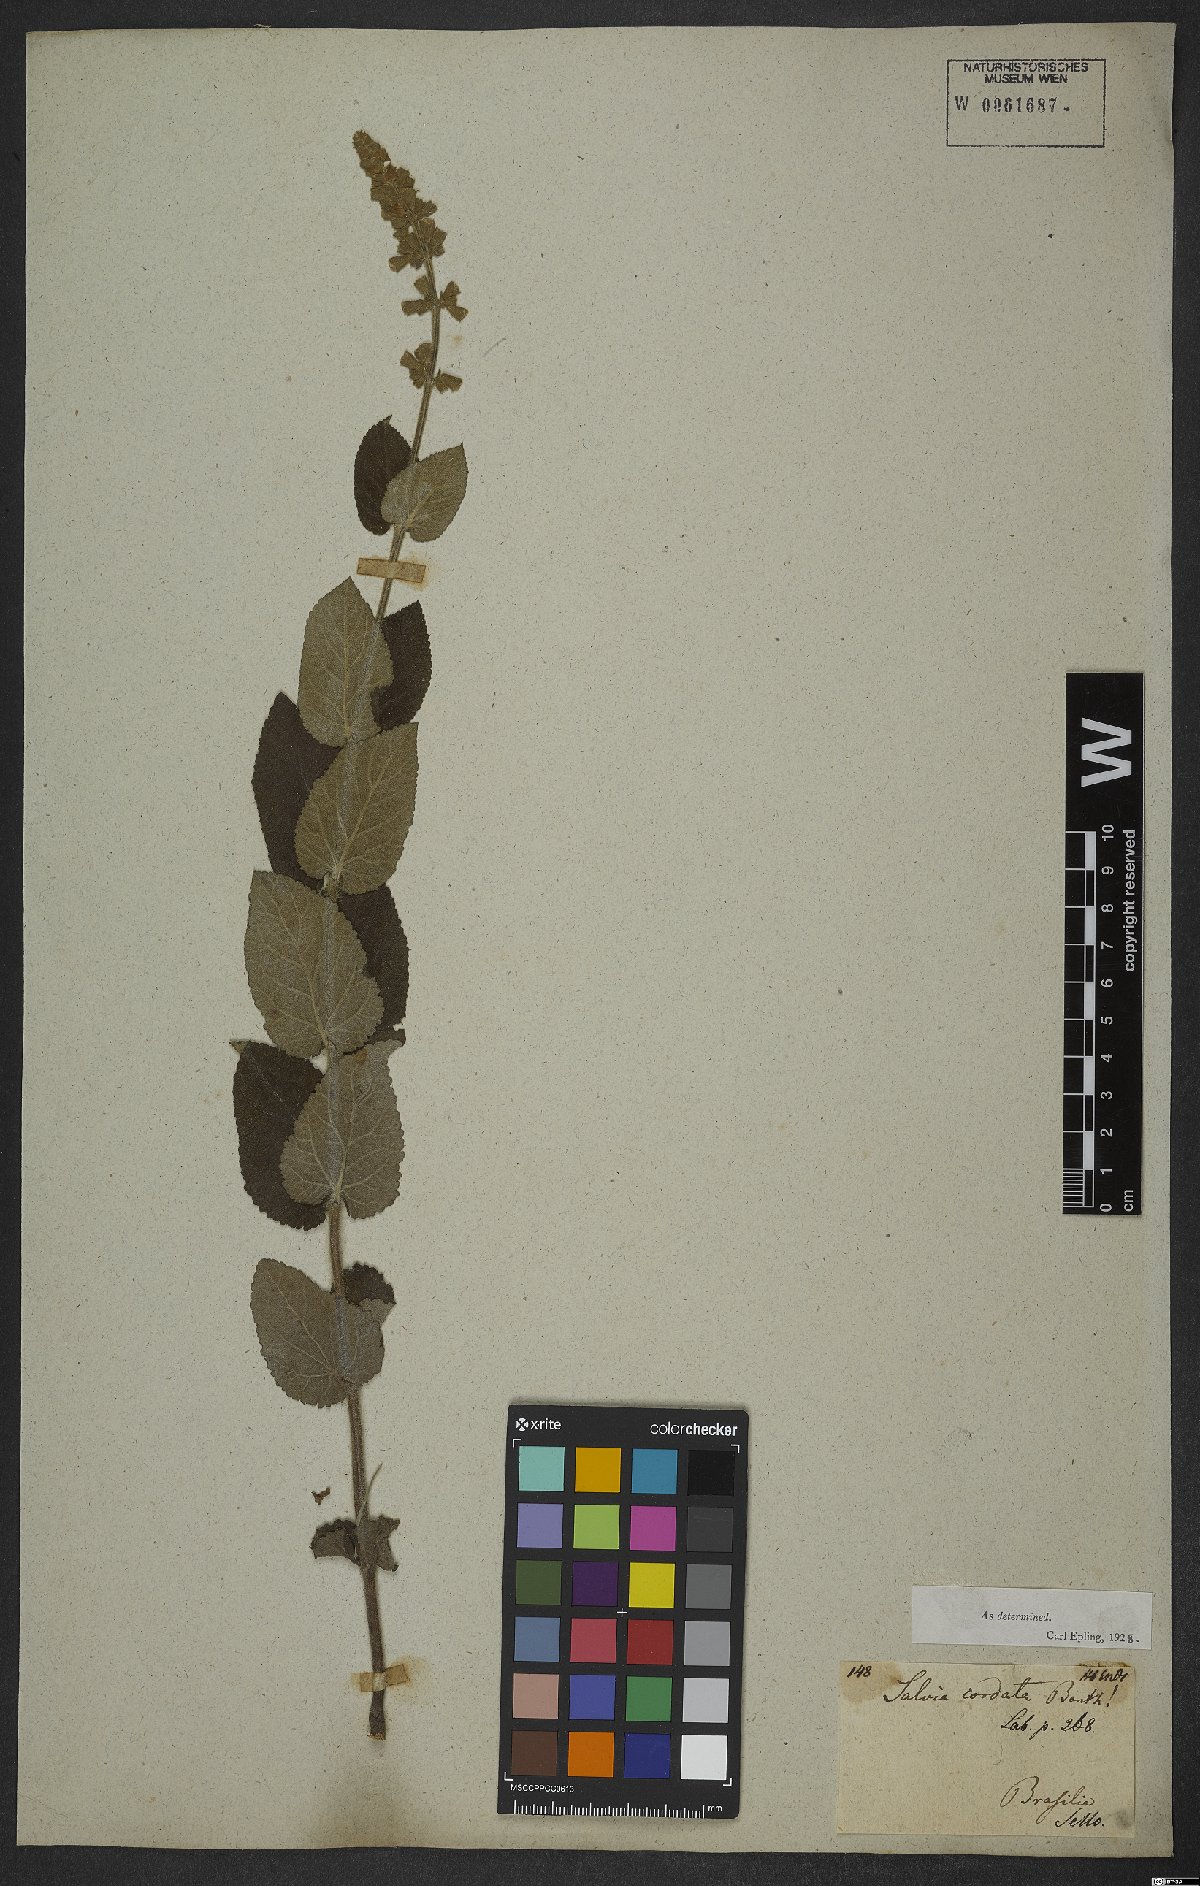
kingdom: Plantae
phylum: Tracheophyta
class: Magnoliopsida
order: Lamiales
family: Lamiaceae
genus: Salvia
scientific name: Salvia cordata
